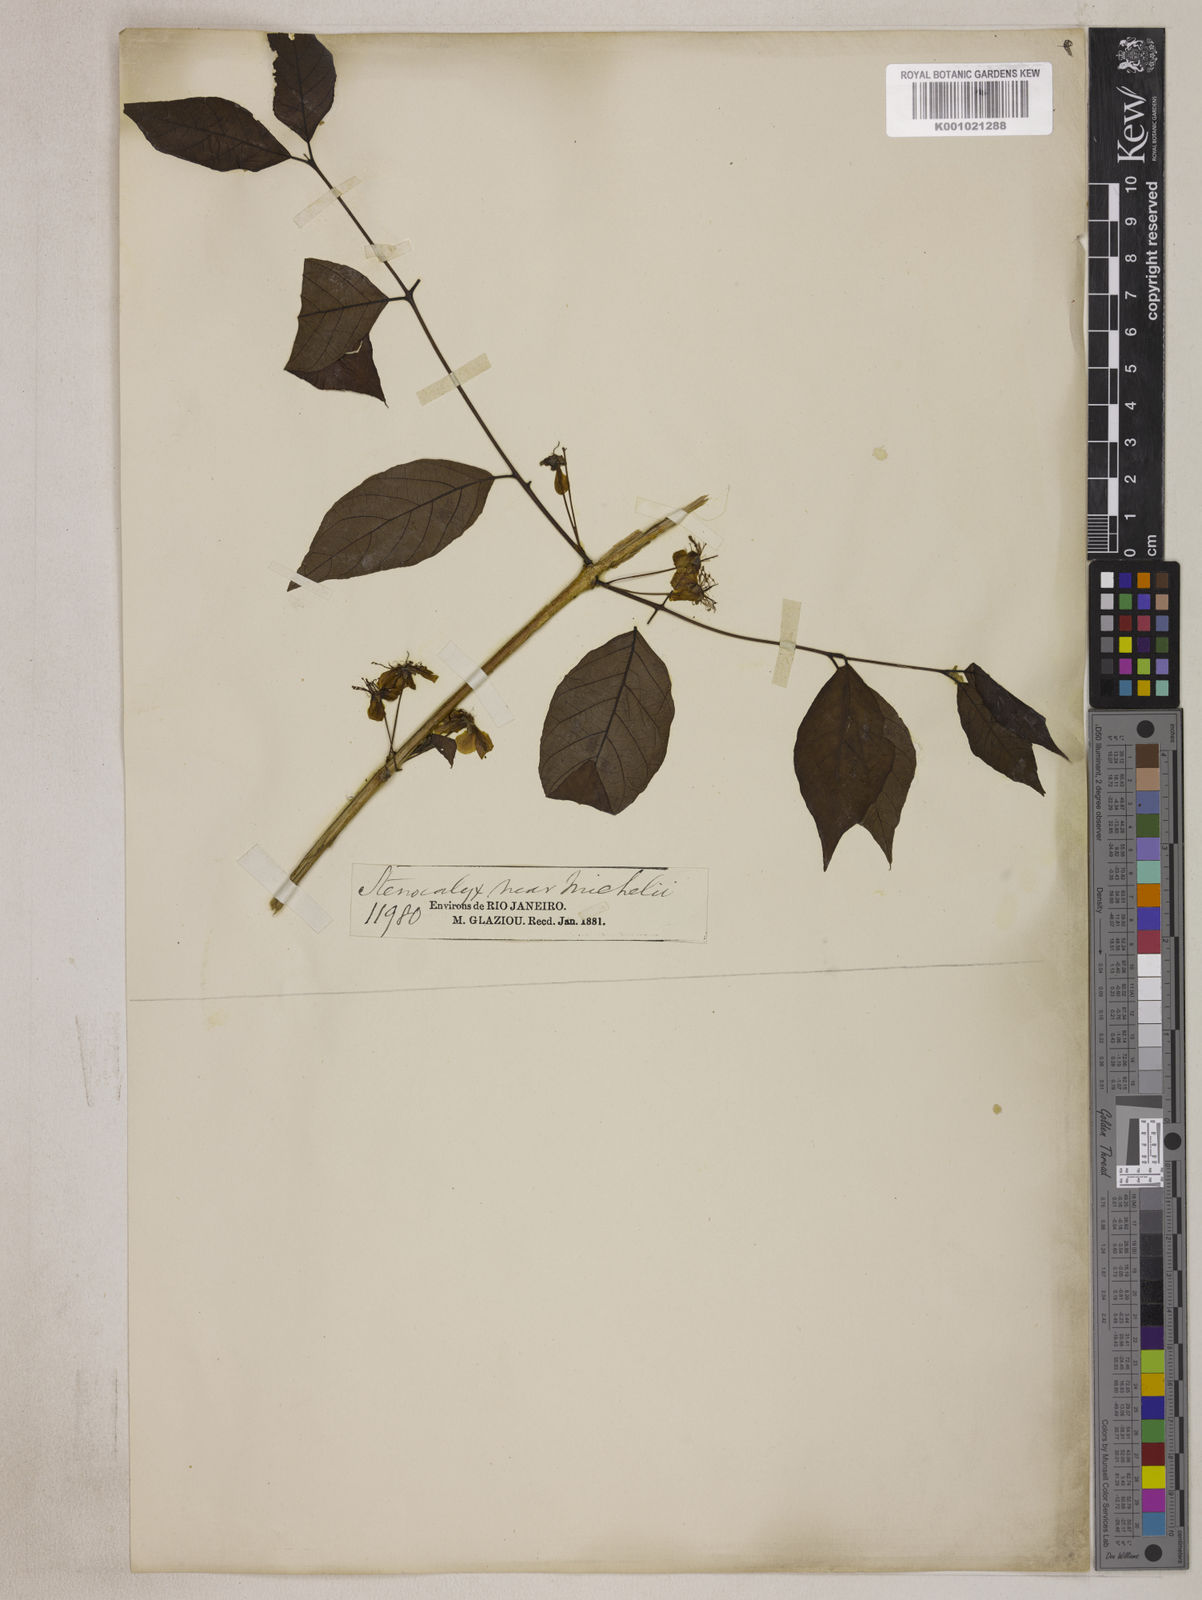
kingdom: Plantae
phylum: Tracheophyta
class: Magnoliopsida
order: Myrtales
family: Myrtaceae
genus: Eugenia
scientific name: Eugenia uniflora
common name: Surinam cherry
